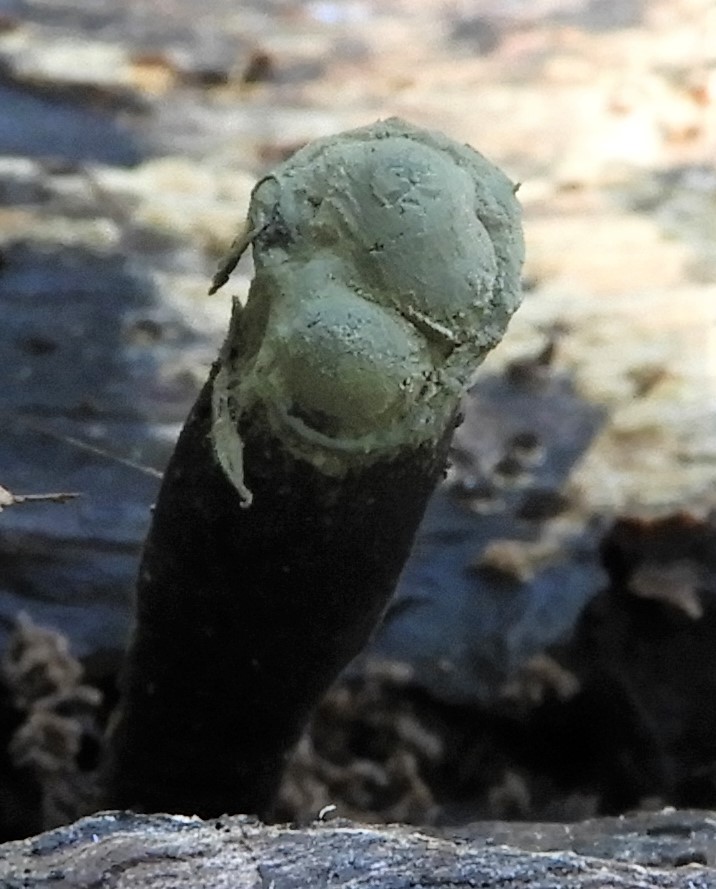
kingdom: Fungi
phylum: Ascomycota
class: Sordariomycetes
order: Xylariales
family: Xylariaceae
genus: Xylaria
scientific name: Xylaria
